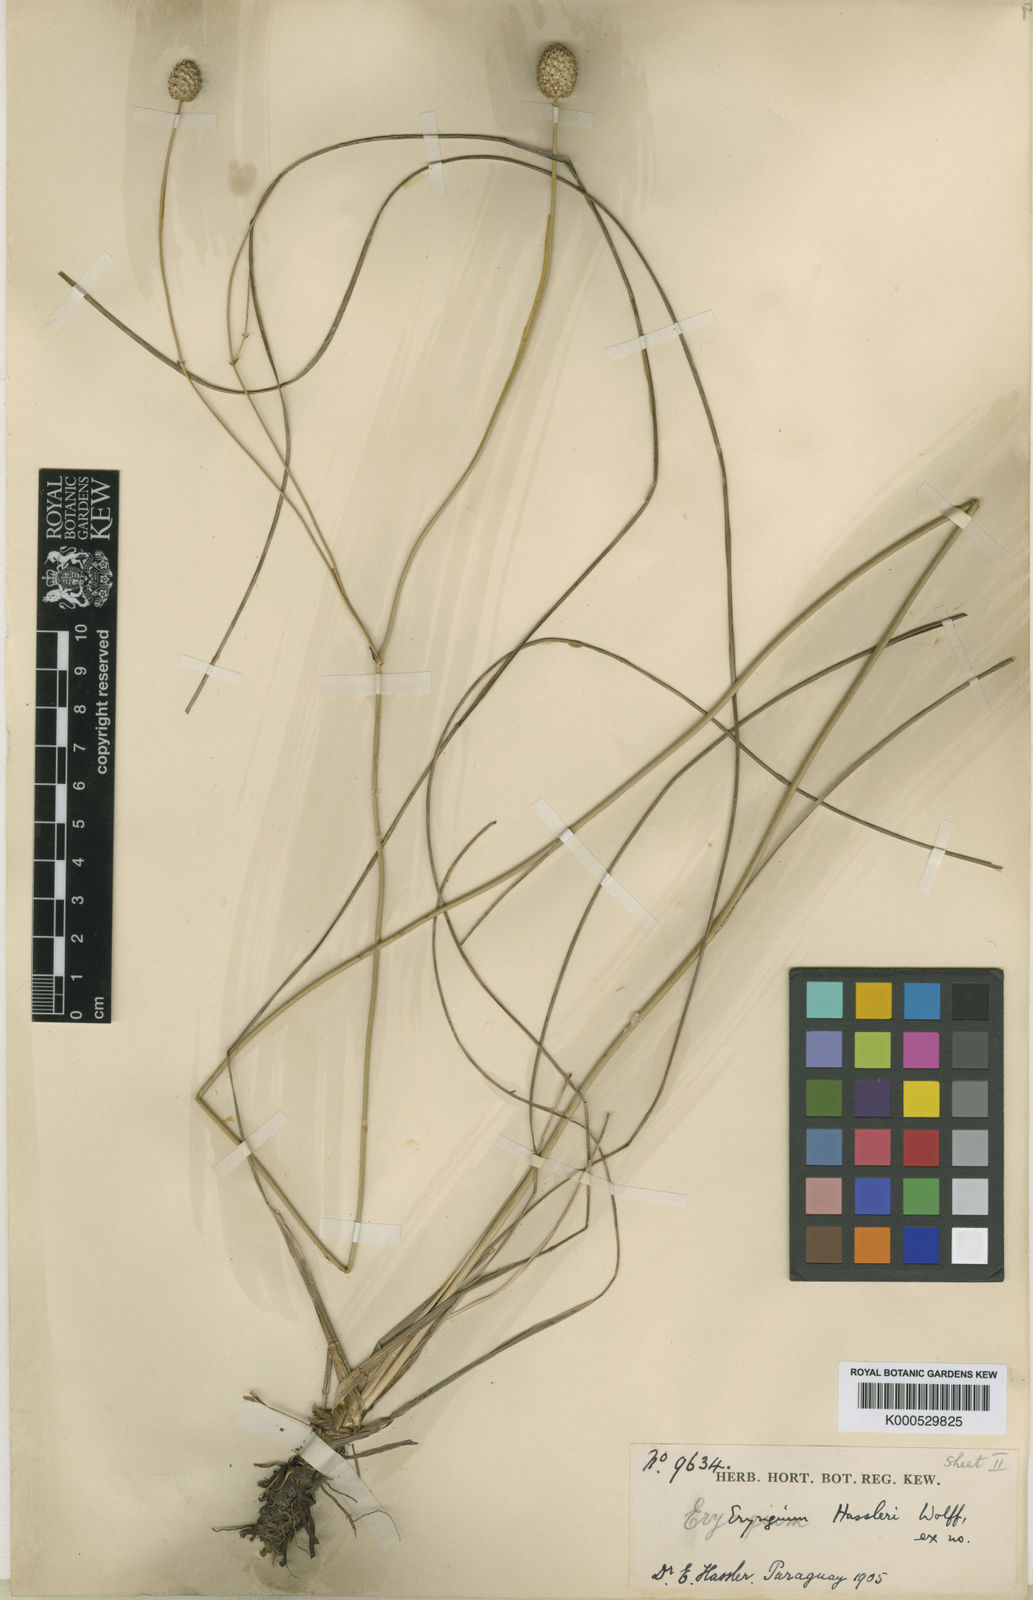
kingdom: Plantae
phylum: Tracheophyta
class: Magnoliopsida
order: Apiales
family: Apiaceae
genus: Eryngium
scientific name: Eryngium hassleri
